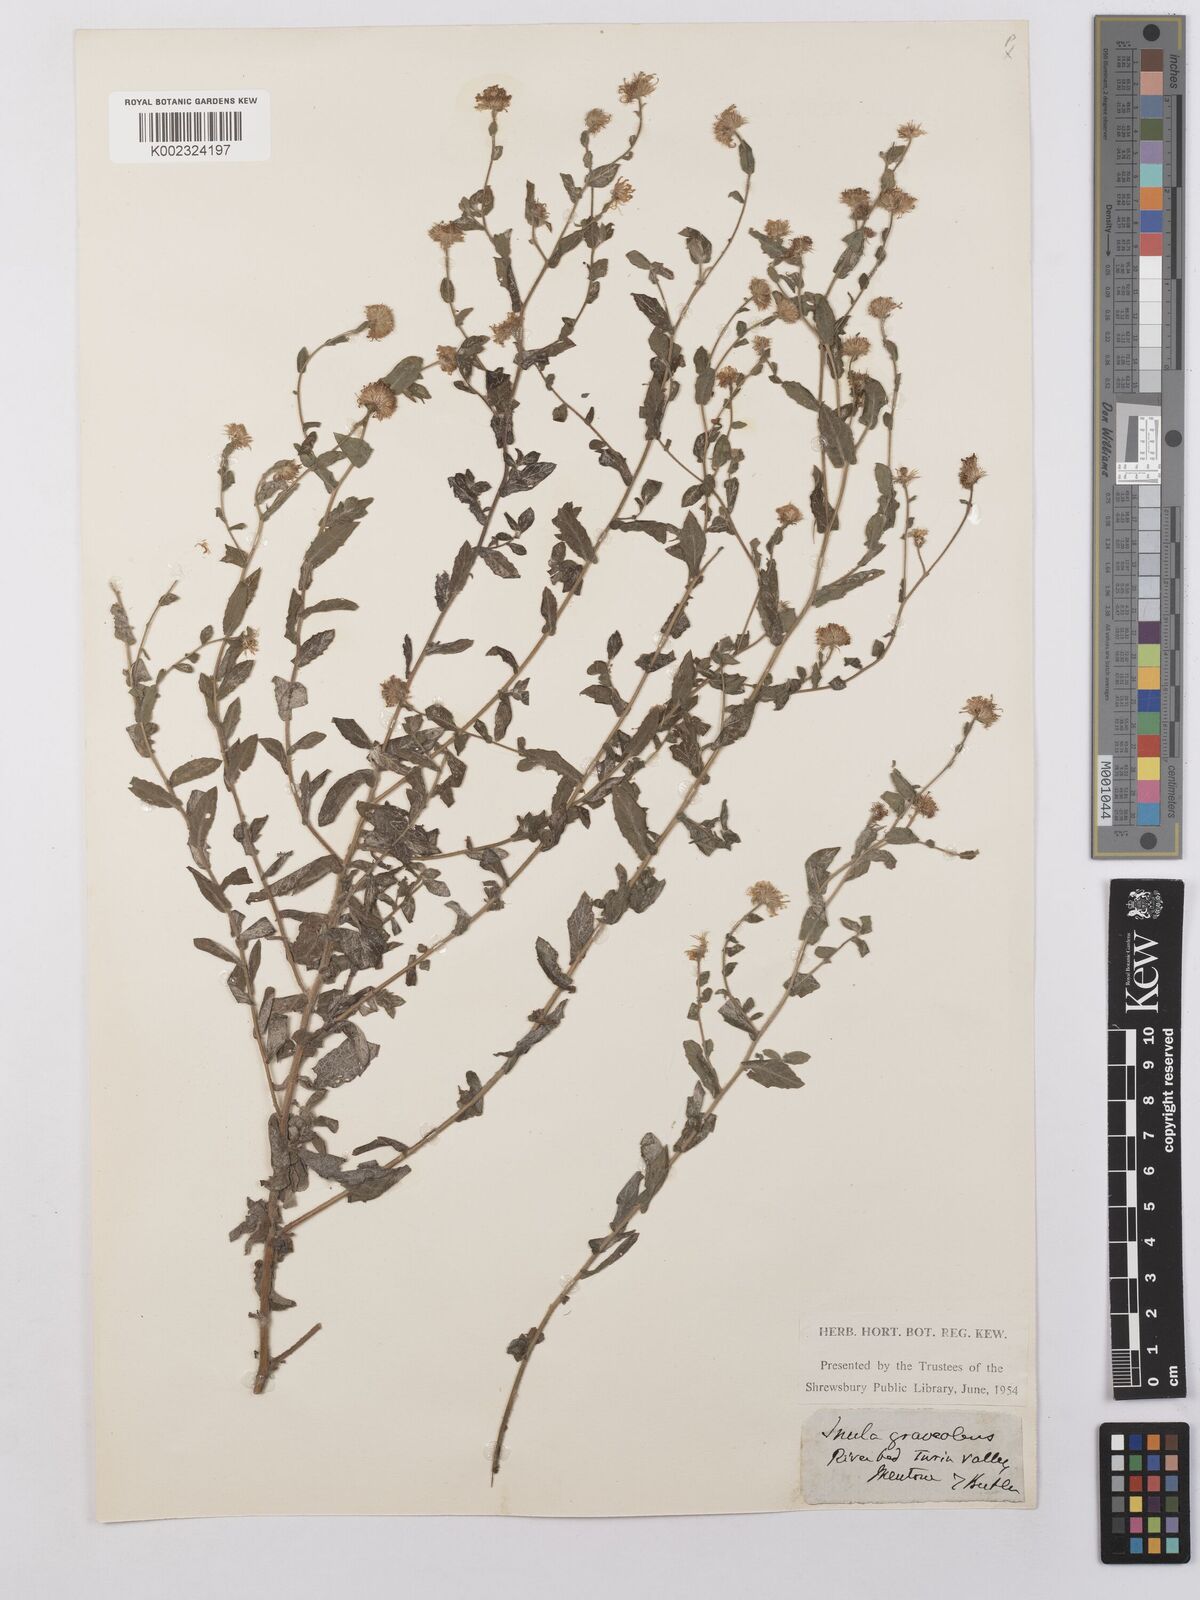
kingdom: Plantae
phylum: Tracheophyta
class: Magnoliopsida
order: Asterales
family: Asteraceae
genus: Pulicaria
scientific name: Pulicaria arabica
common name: Ladies' false fleabane
